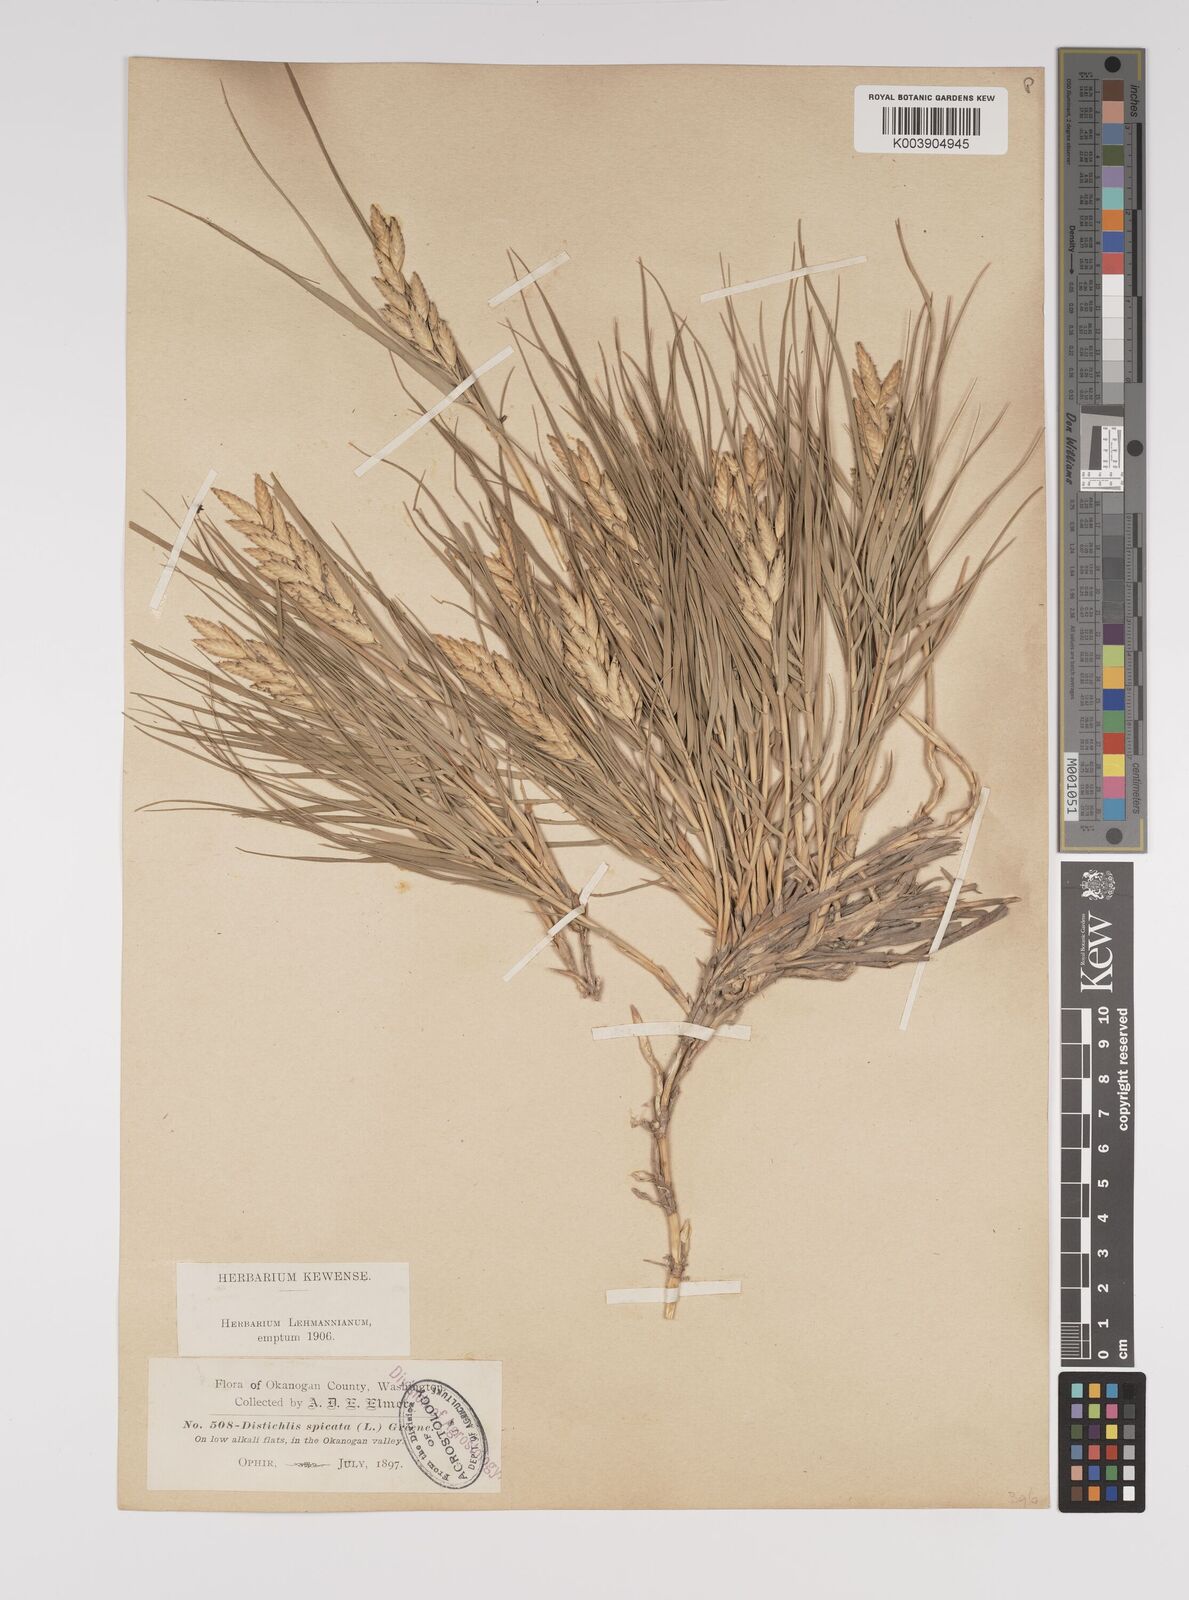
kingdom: Plantae
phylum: Tracheophyta
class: Liliopsida
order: Poales
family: Poaceae
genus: Distichlis
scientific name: Distichlis spicata
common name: Saltgrass
